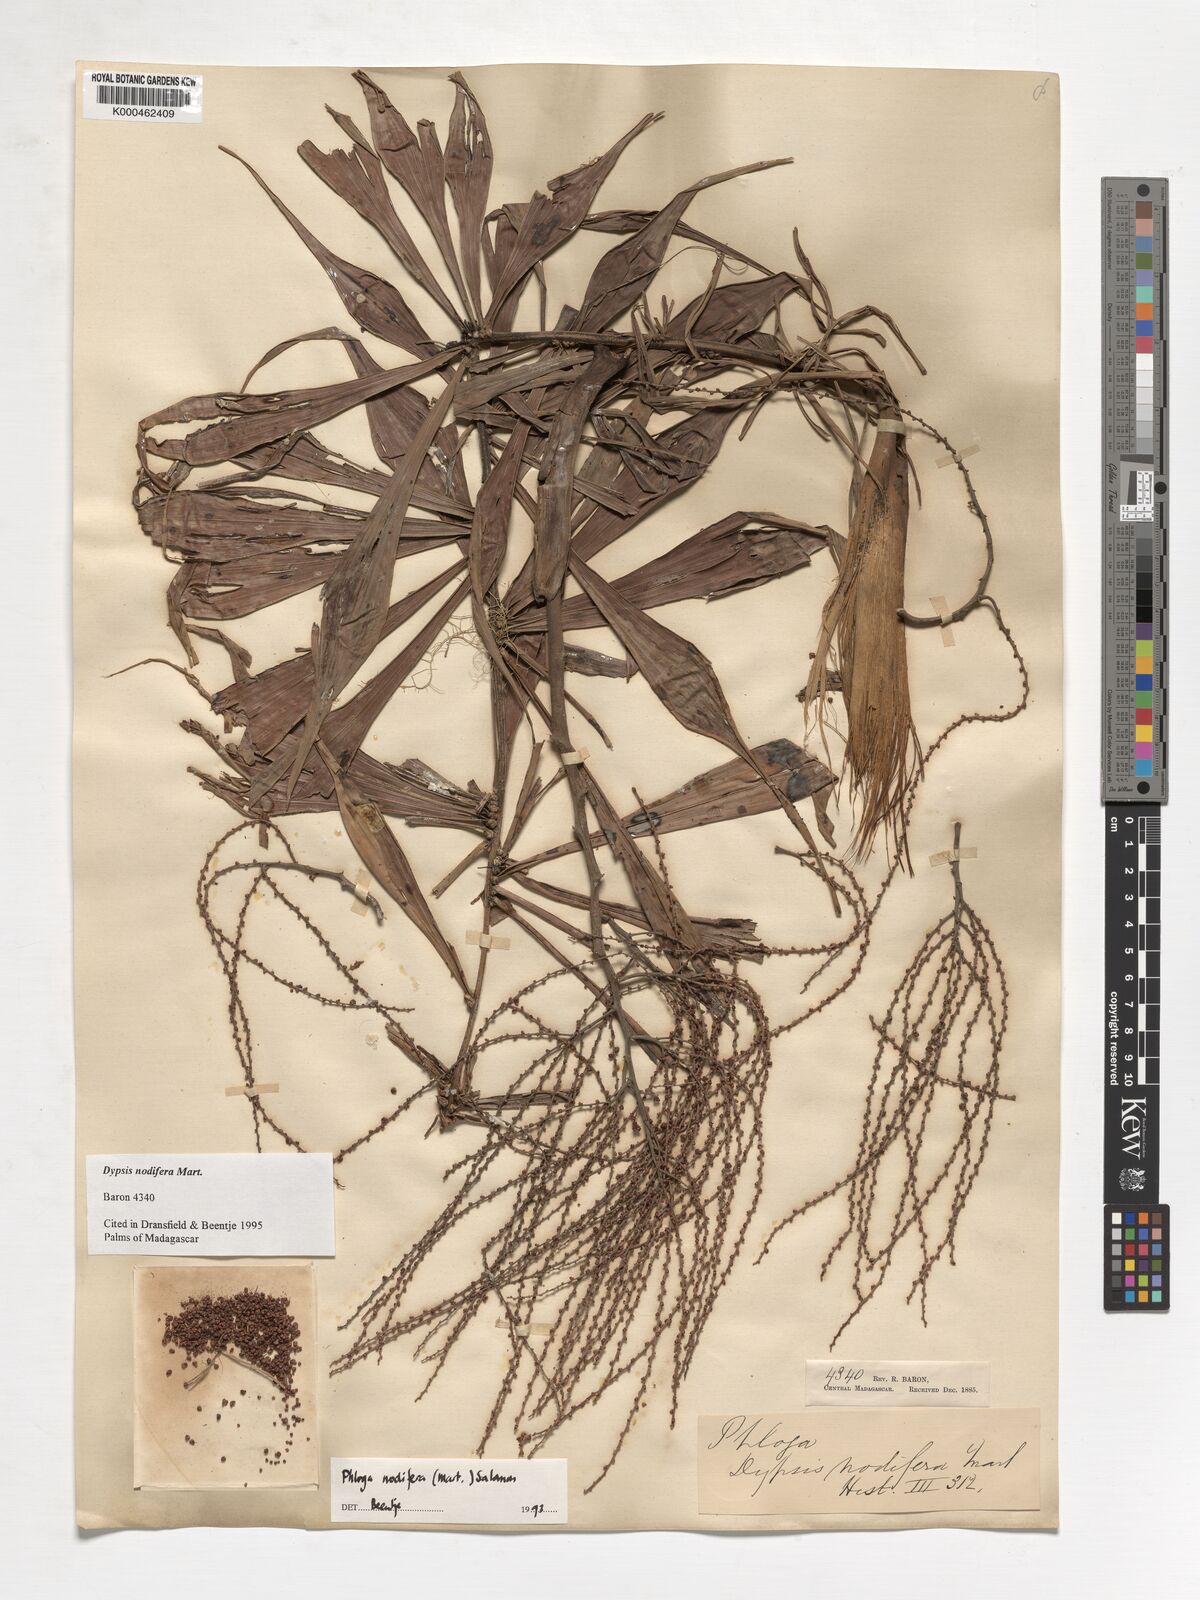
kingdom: Plantae
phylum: Tracheophyta
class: Liliopsida
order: Arecales
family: Arecaceae
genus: Dypsis
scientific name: Dypsis nodifera
